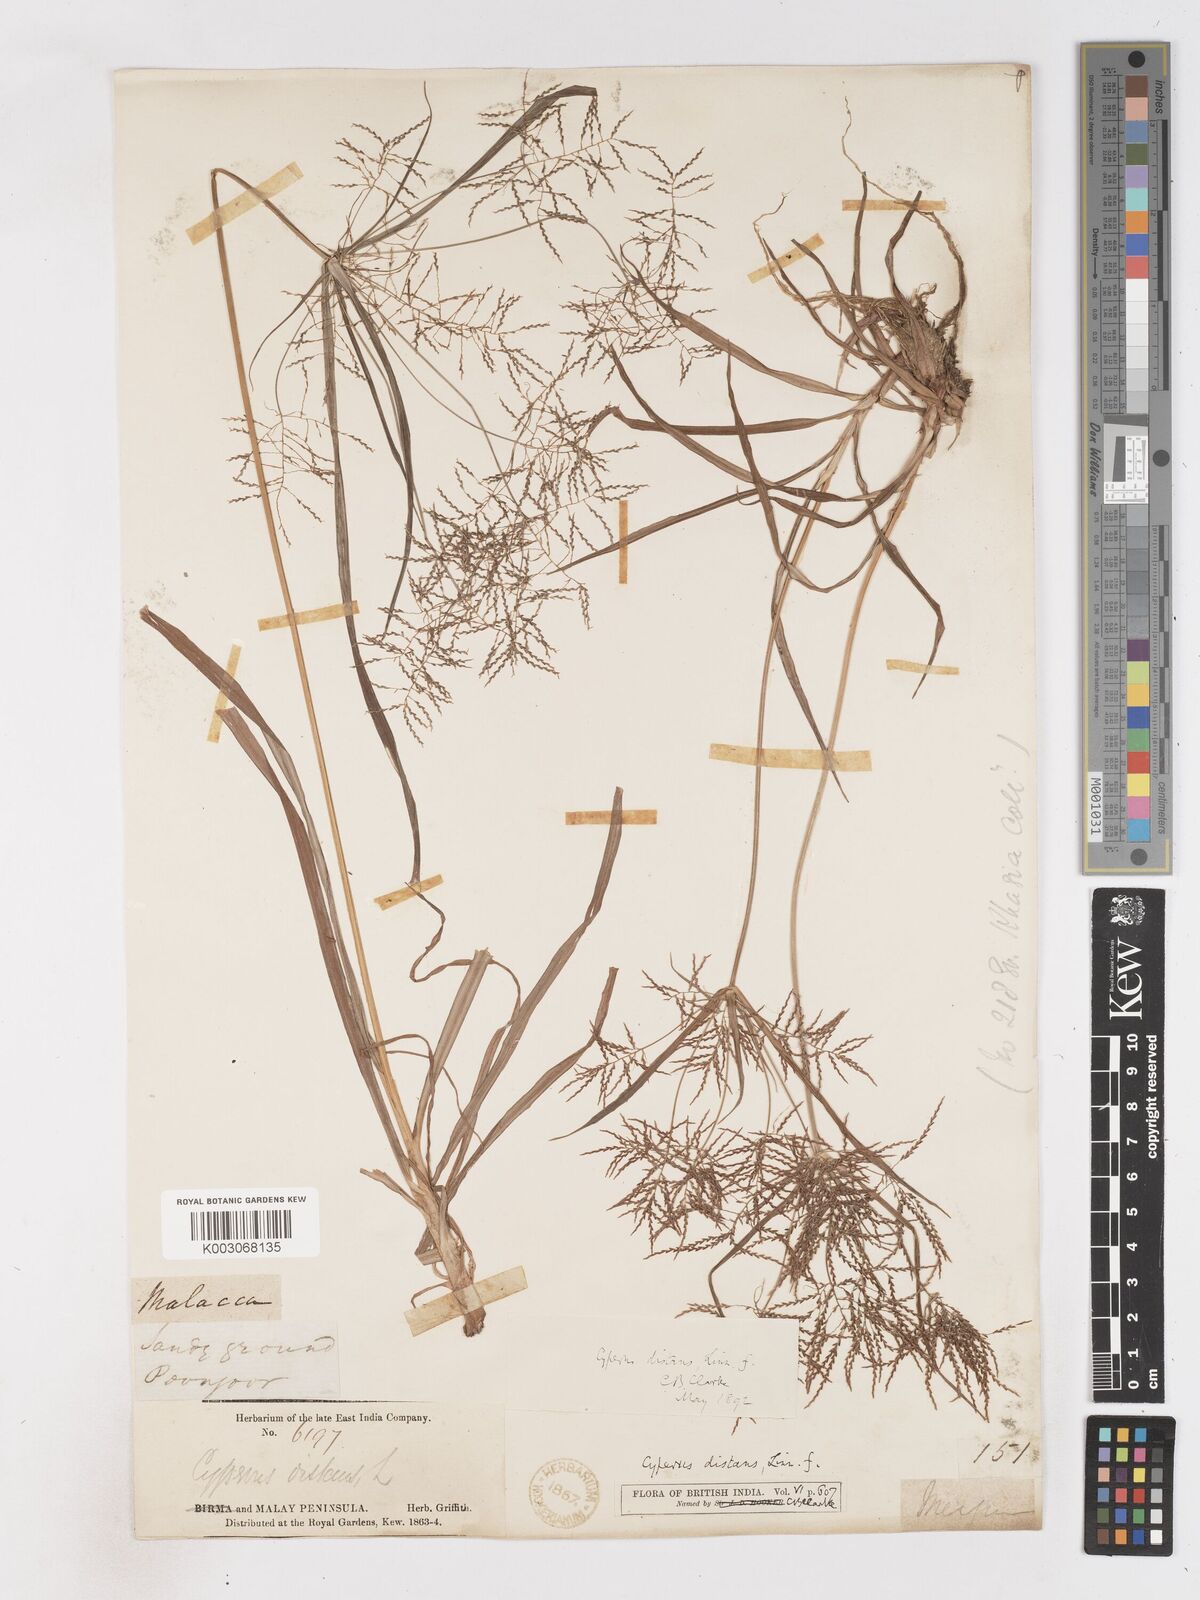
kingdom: Plantae
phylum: Tracheophyta
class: Liliopsida
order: Poales
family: Cyperaceae
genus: Cyperus
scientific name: Cyperus distans
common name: Slender cyperus
